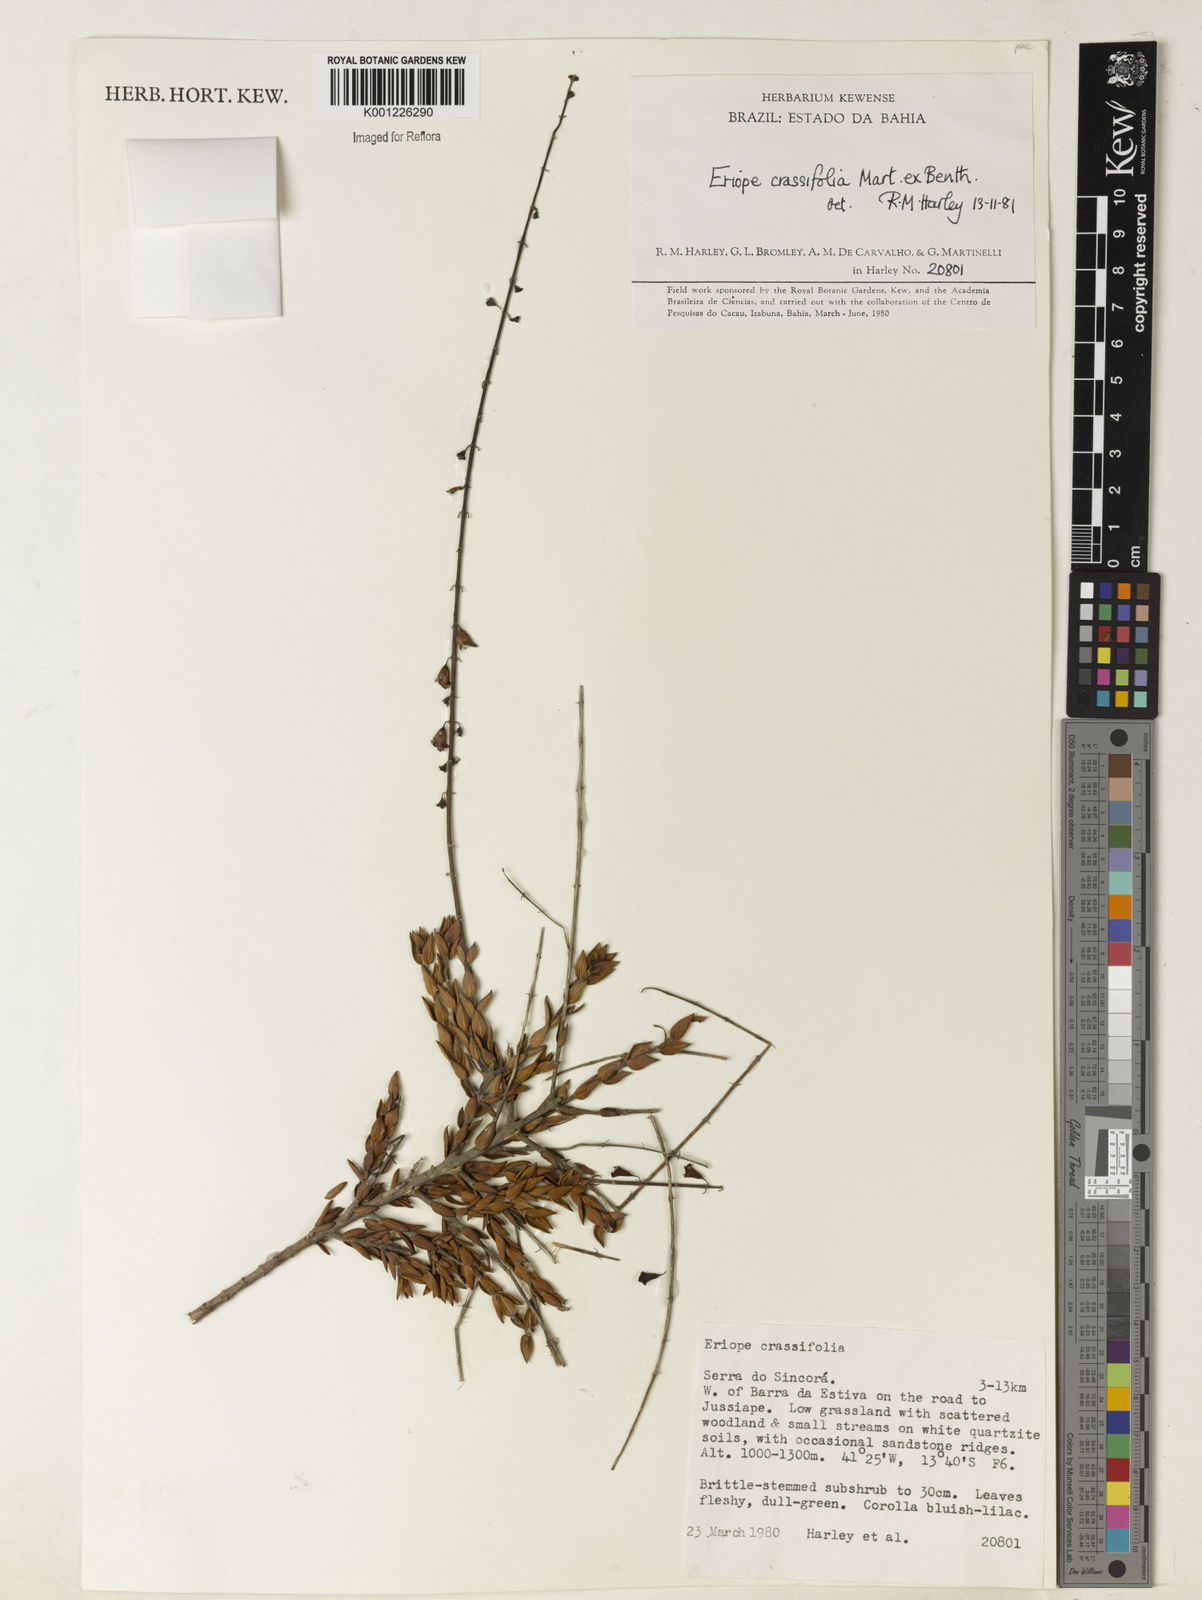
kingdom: Plantae
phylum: Tracheophyta
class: Magnoliopsida
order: Lamiales
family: Lamiaceae
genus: Eriope
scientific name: Eriope crassifolia
